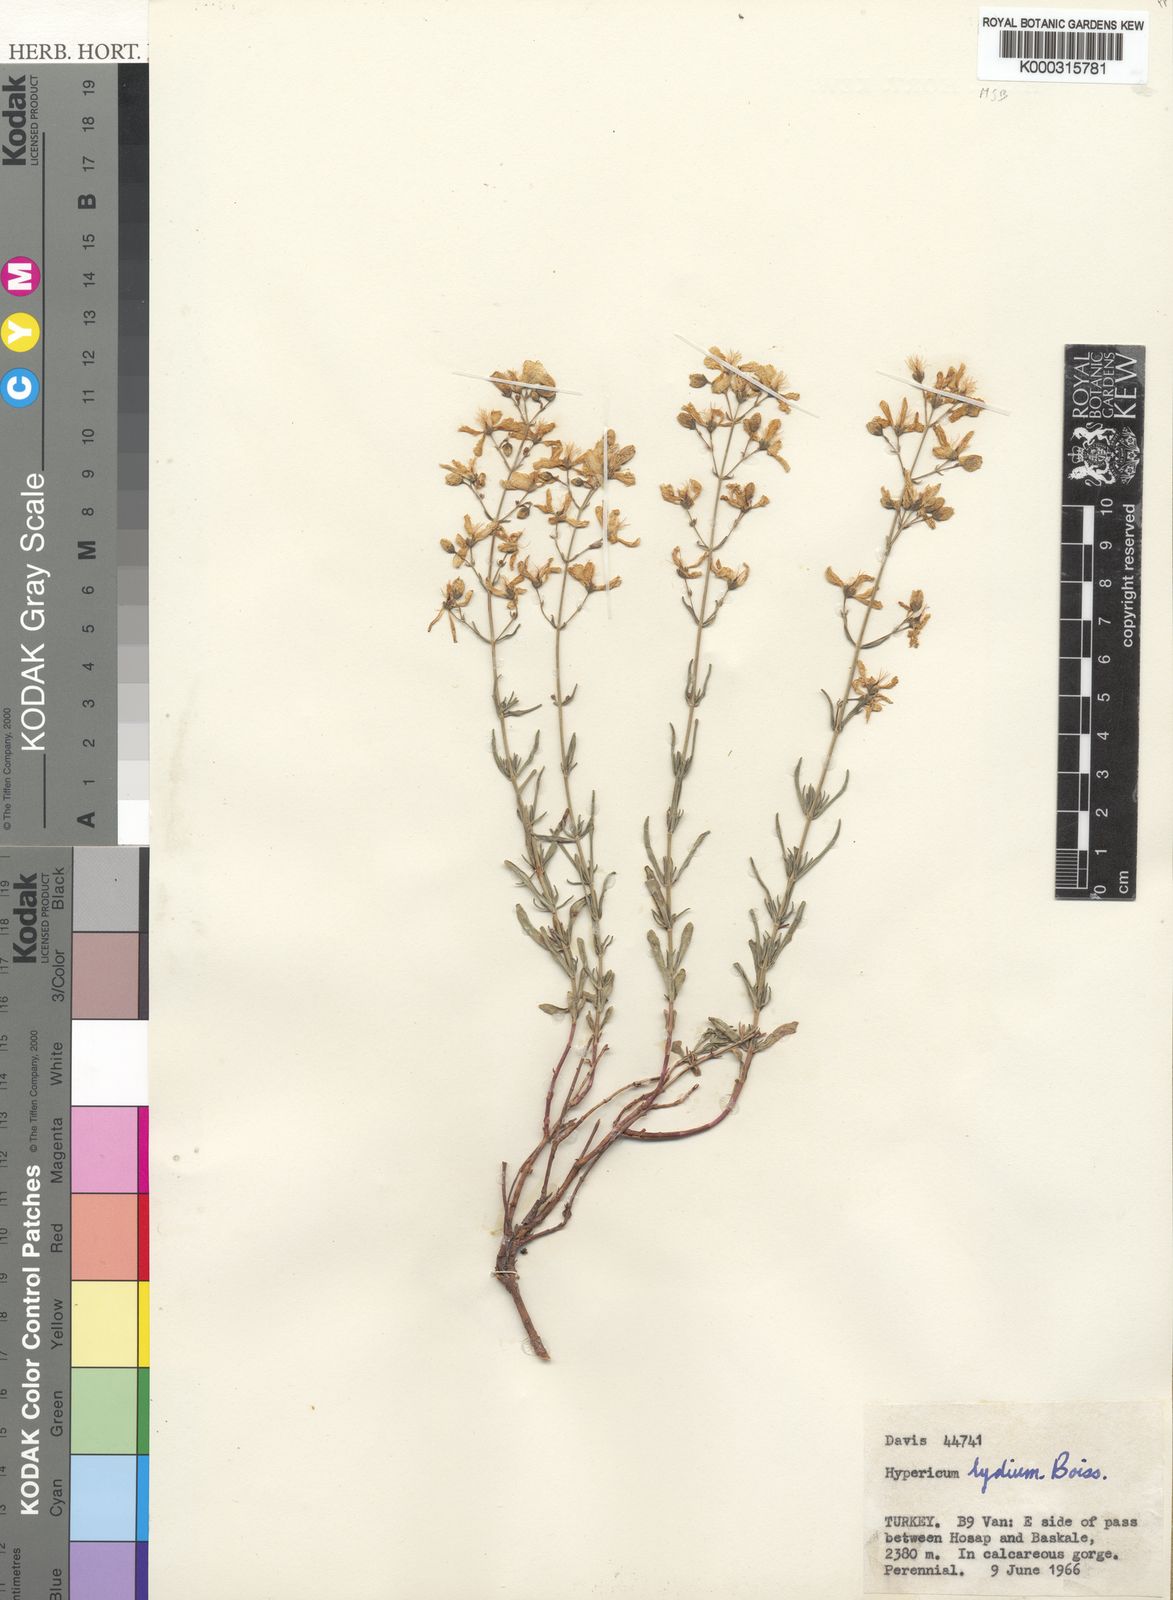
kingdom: Plantae
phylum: Tracheophyta
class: Magnoliopsida
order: Malpighiales
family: Hypericaceae
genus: Hypericum
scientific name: Hypericum lydium
